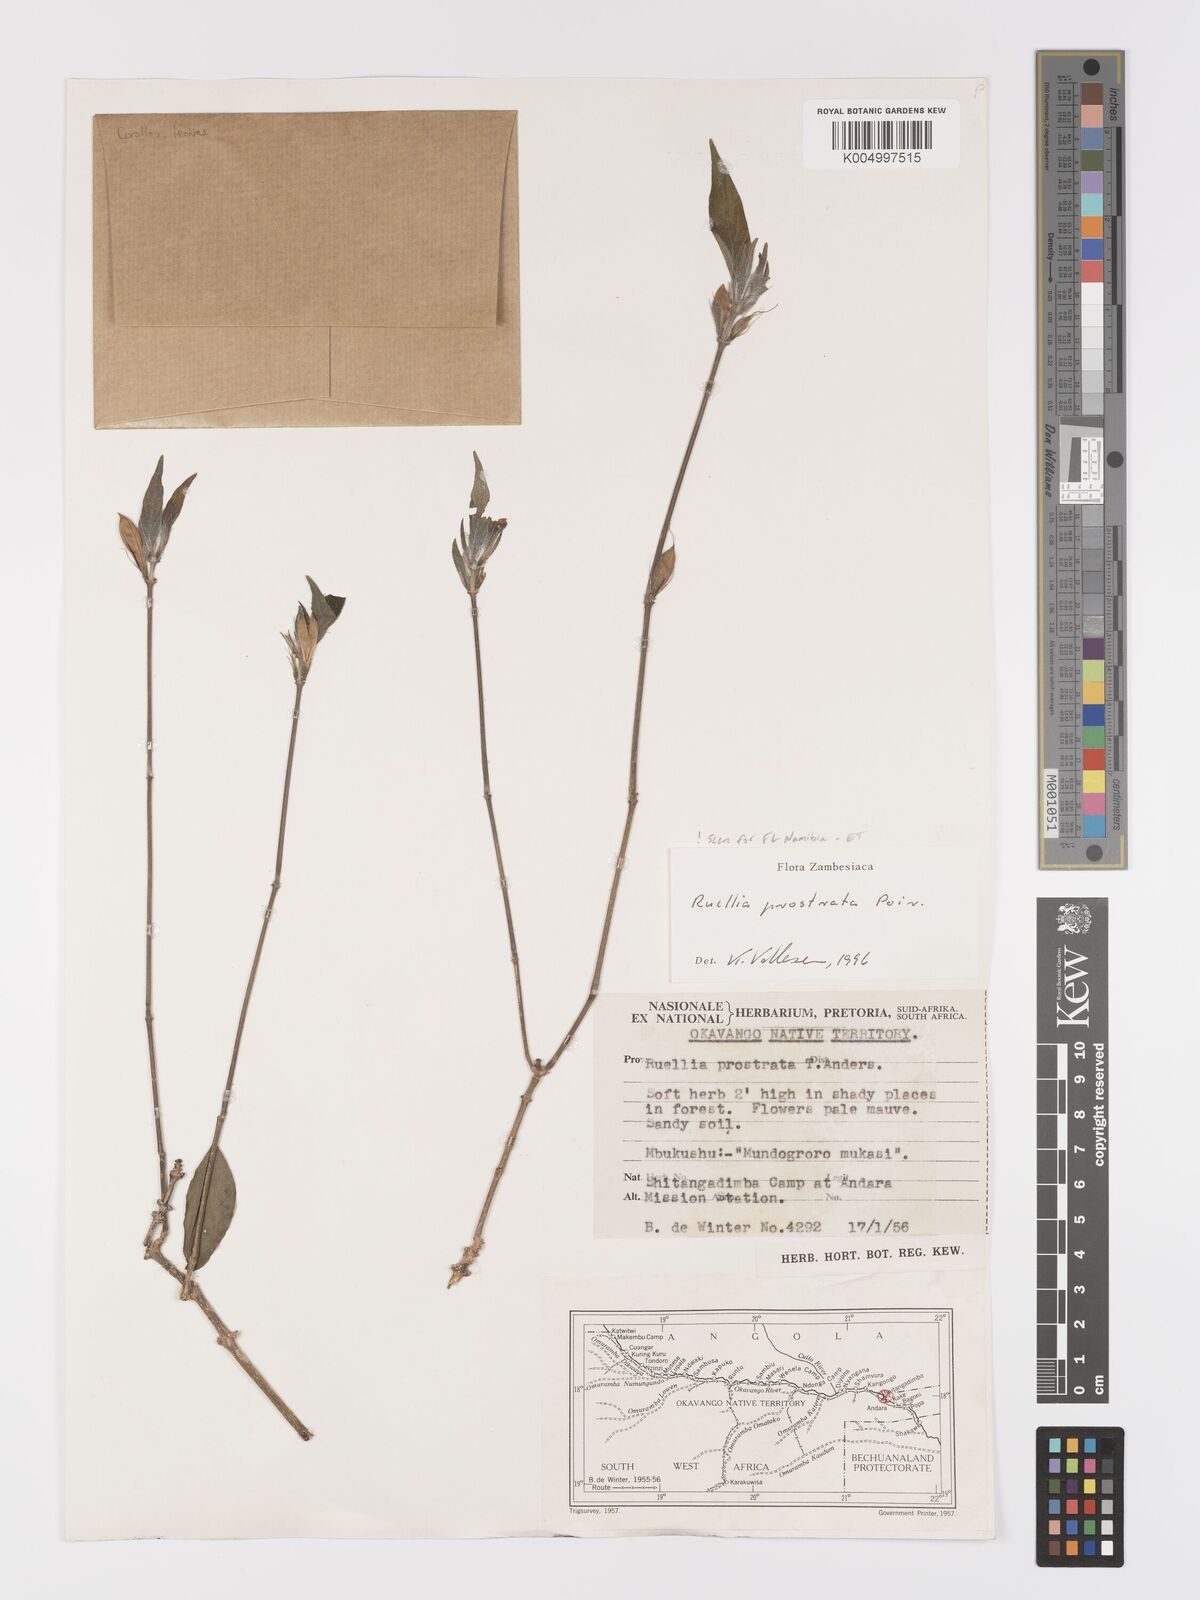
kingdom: Plantae
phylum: Tracheophyta
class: Magnoliopsida
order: Lamiales
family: Acanthaceae
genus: Ruellia
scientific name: Ruellia
